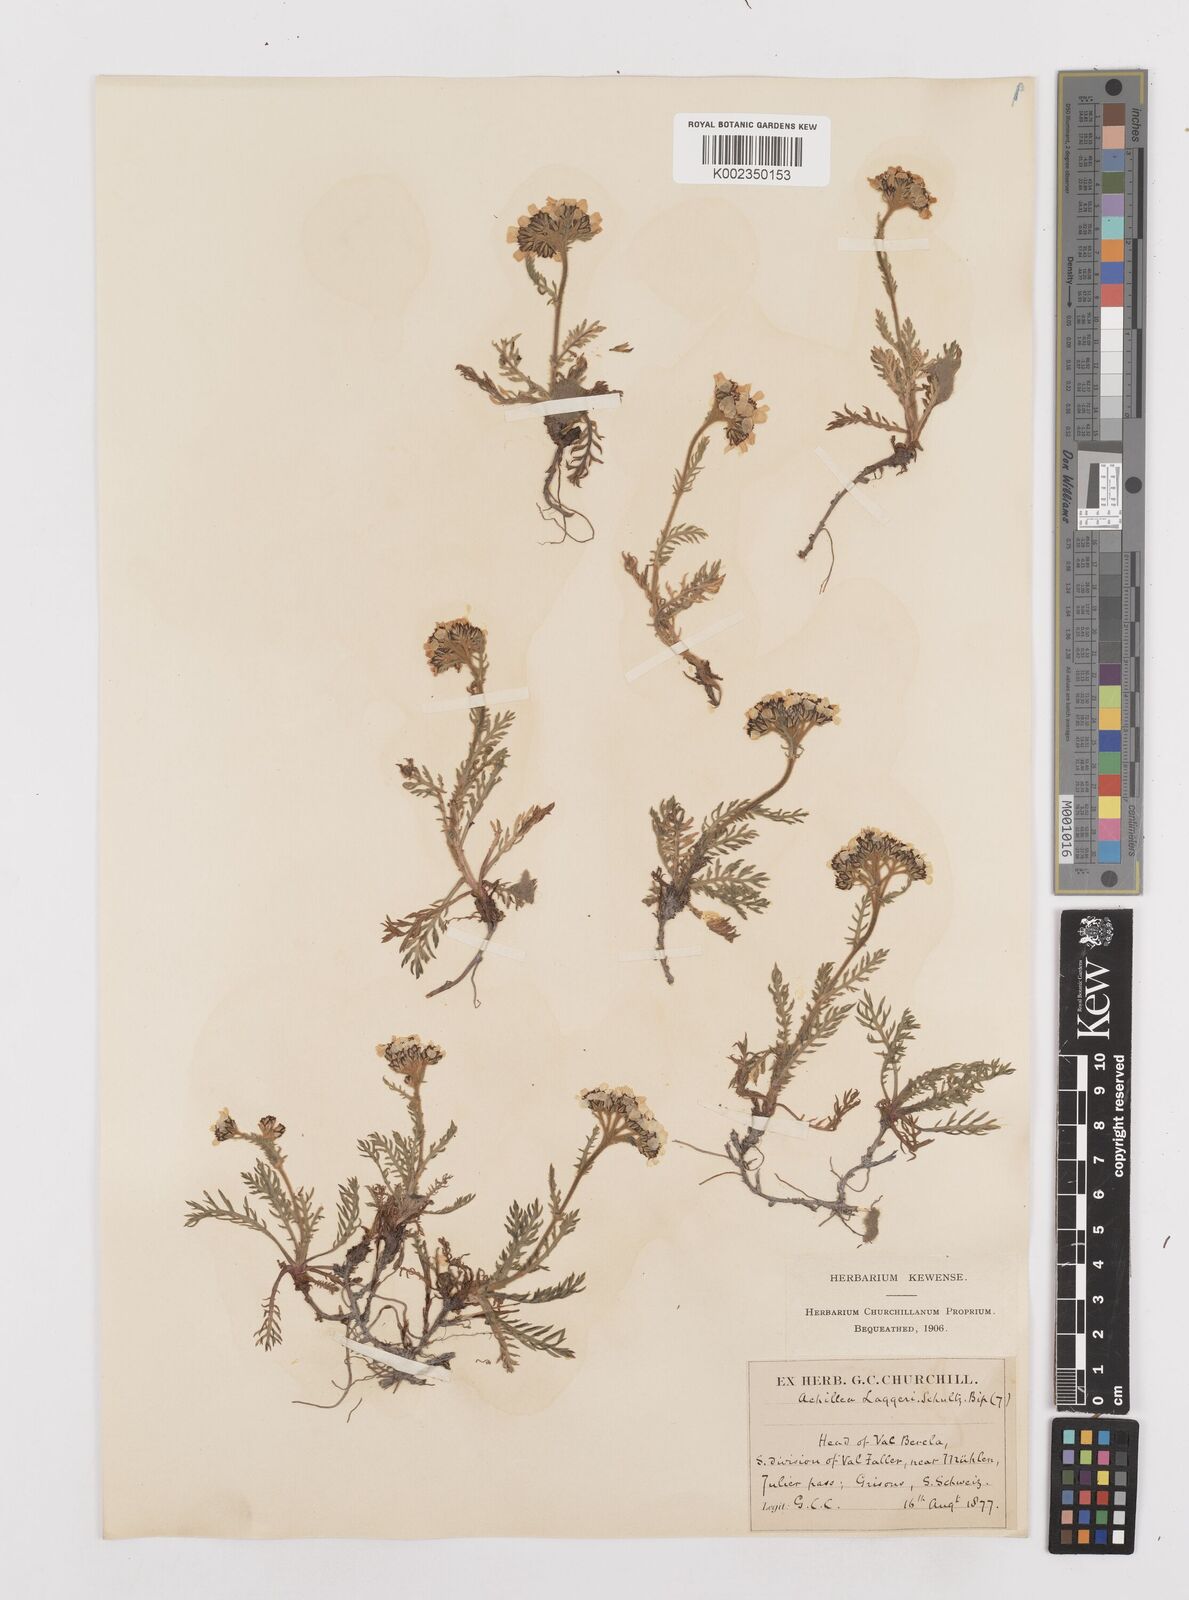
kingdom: Plantae
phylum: Tracheophyta
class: Magnoliopsida
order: Asterales
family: Asteraceae
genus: Achillea
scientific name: Achillea atrata
